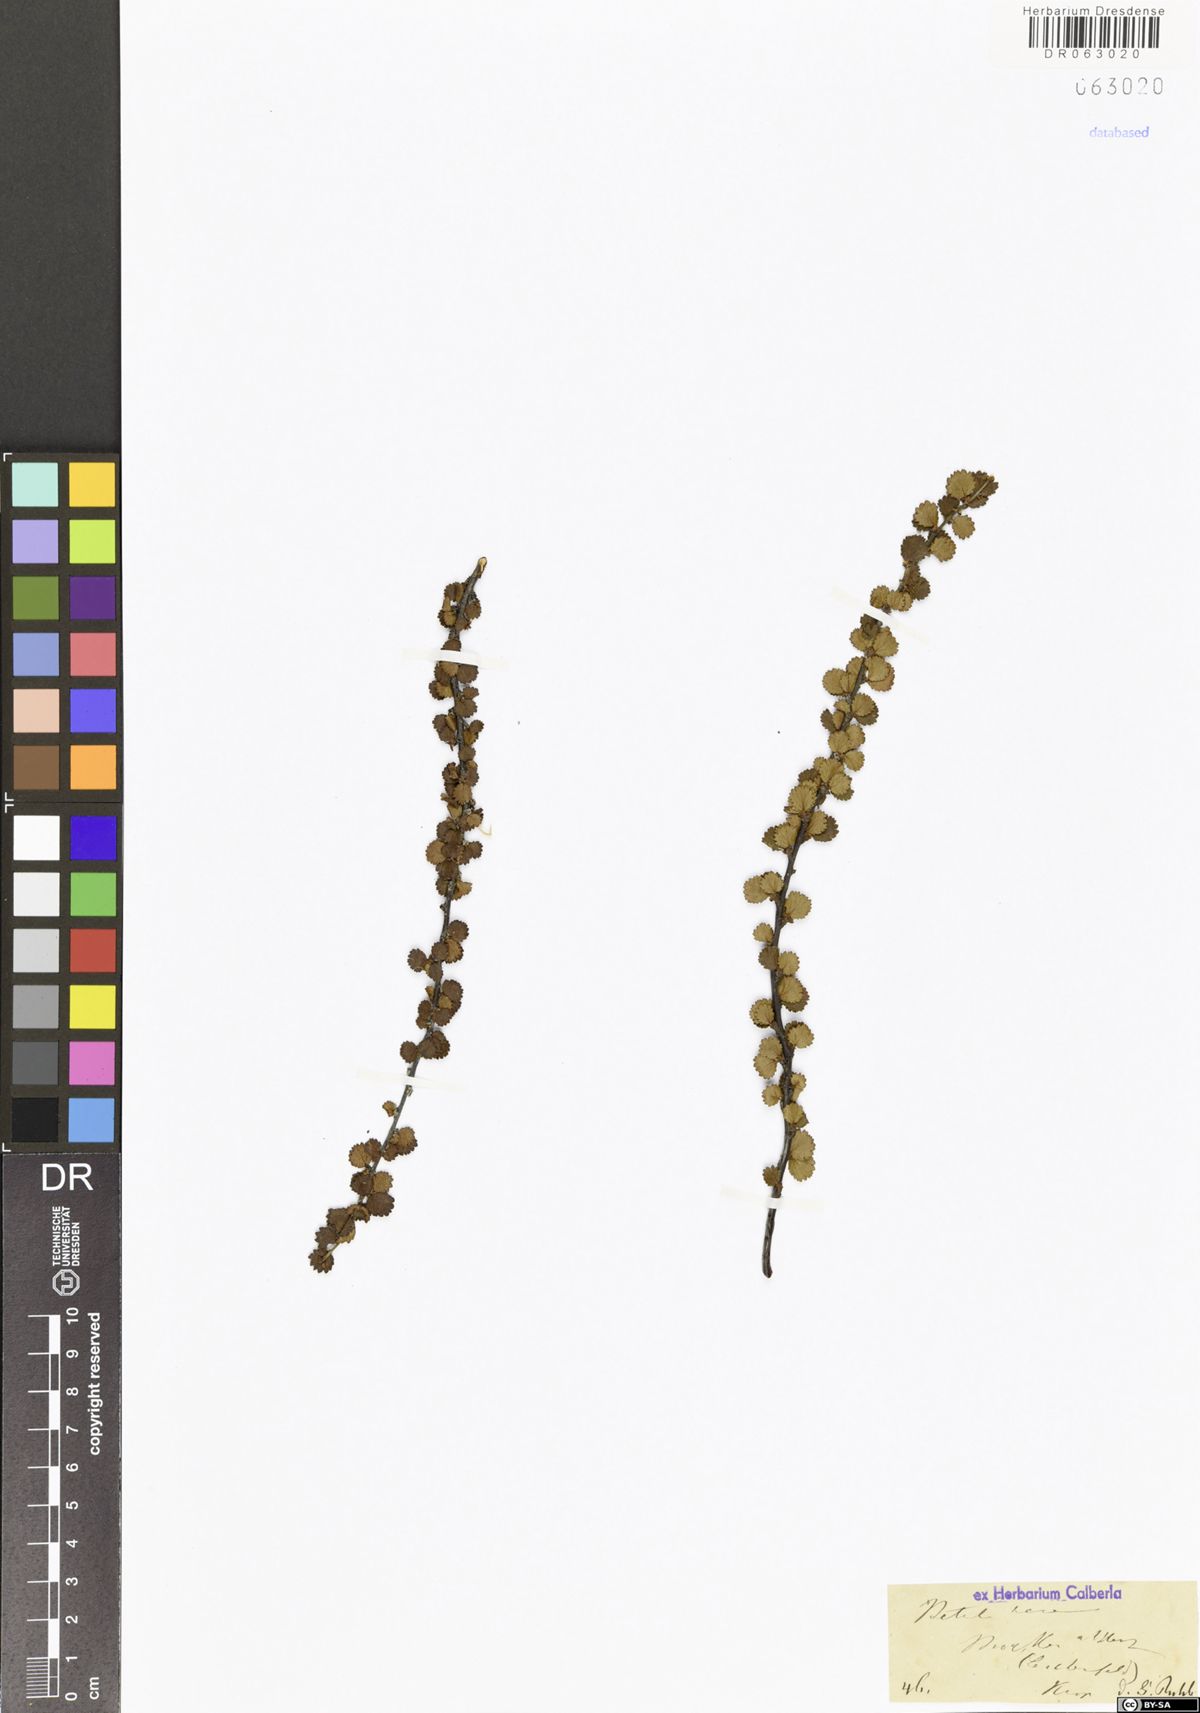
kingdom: Plantae
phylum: Tracheophyta
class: Magnoliopsida
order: Fagales
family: Betulaceae
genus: Betula
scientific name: Betula nana
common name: Arctic dwarf birch
